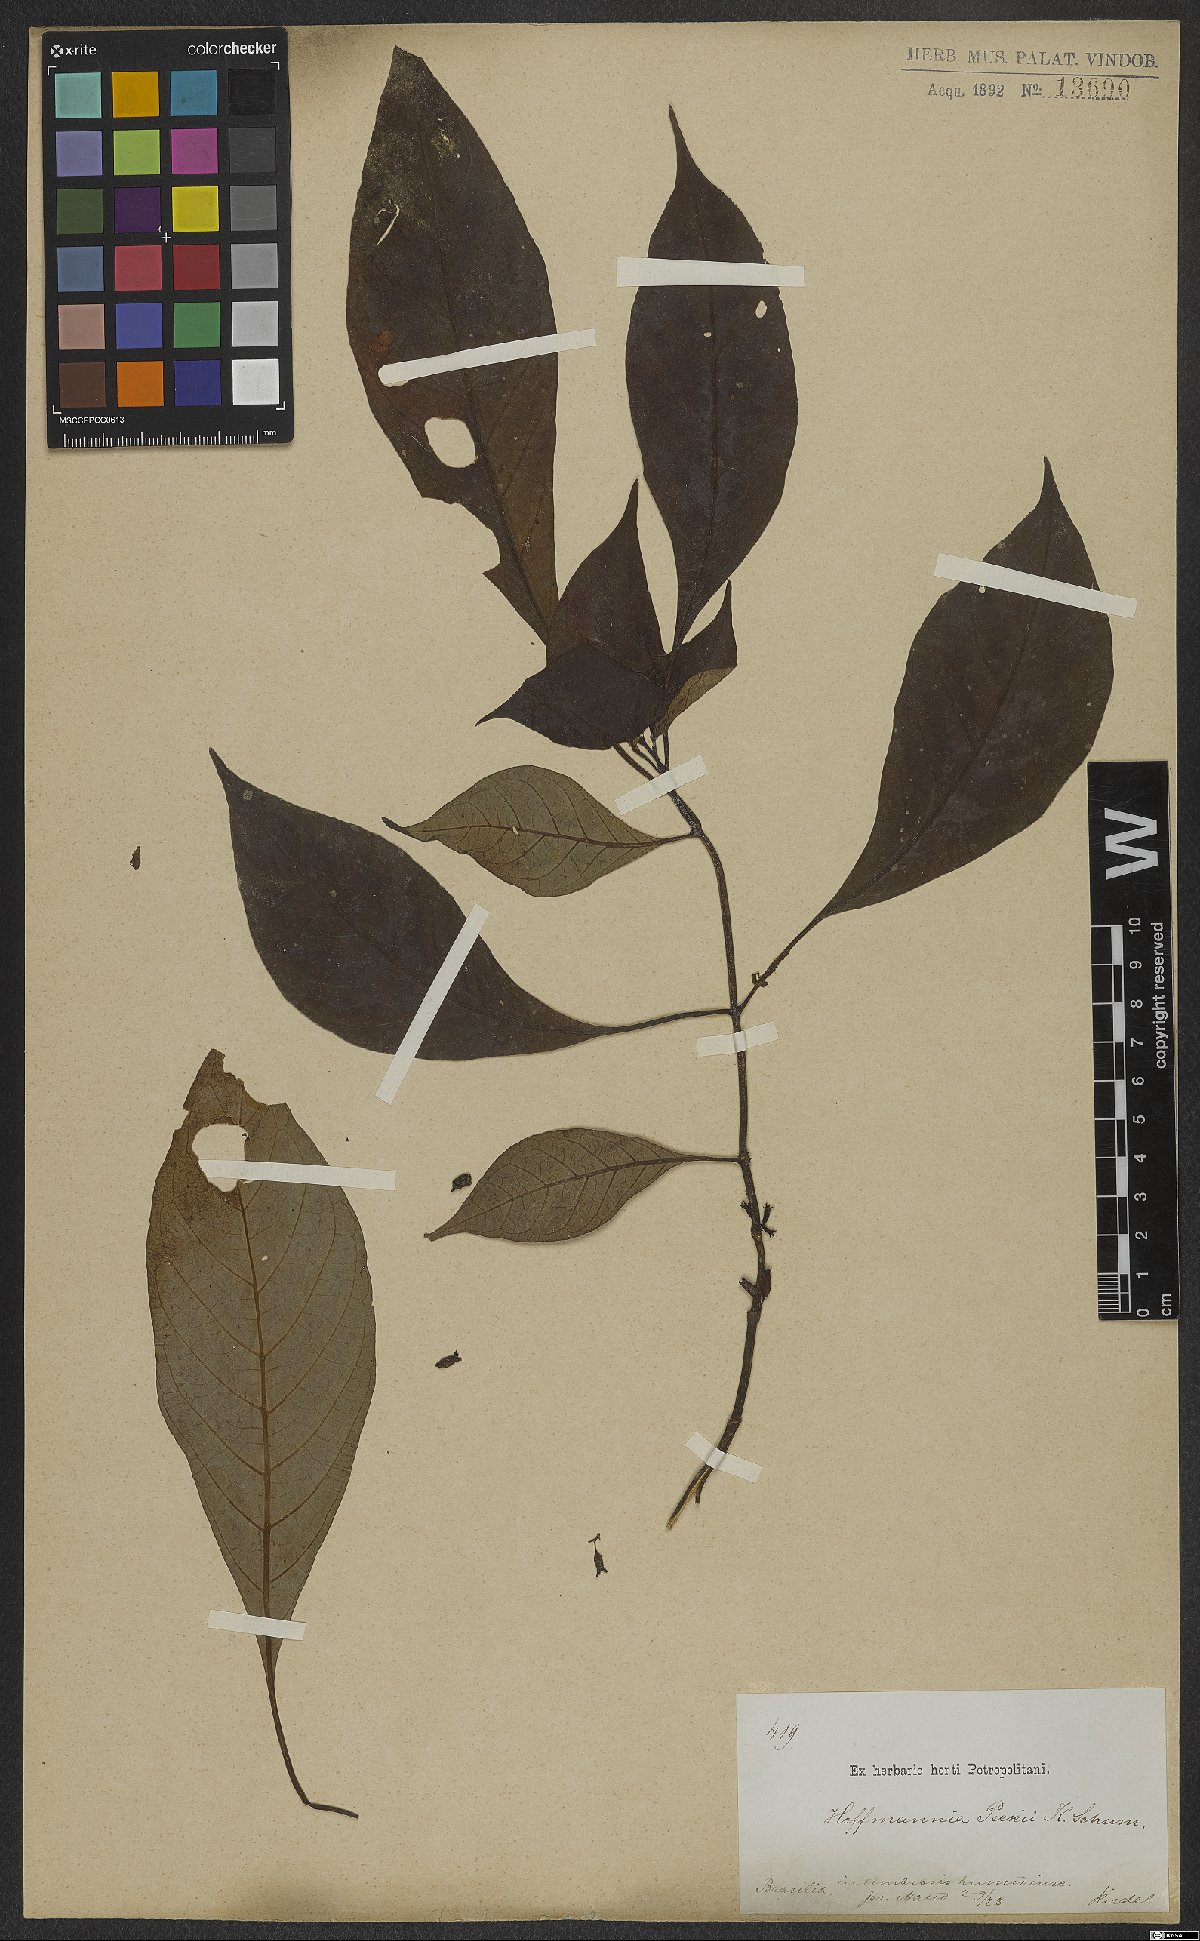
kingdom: Plantae
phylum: Tracheophyta
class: Magnoliopsida
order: Gentianales
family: Rubiaceae
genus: Hoffmannia
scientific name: Hoffmannia peckii
